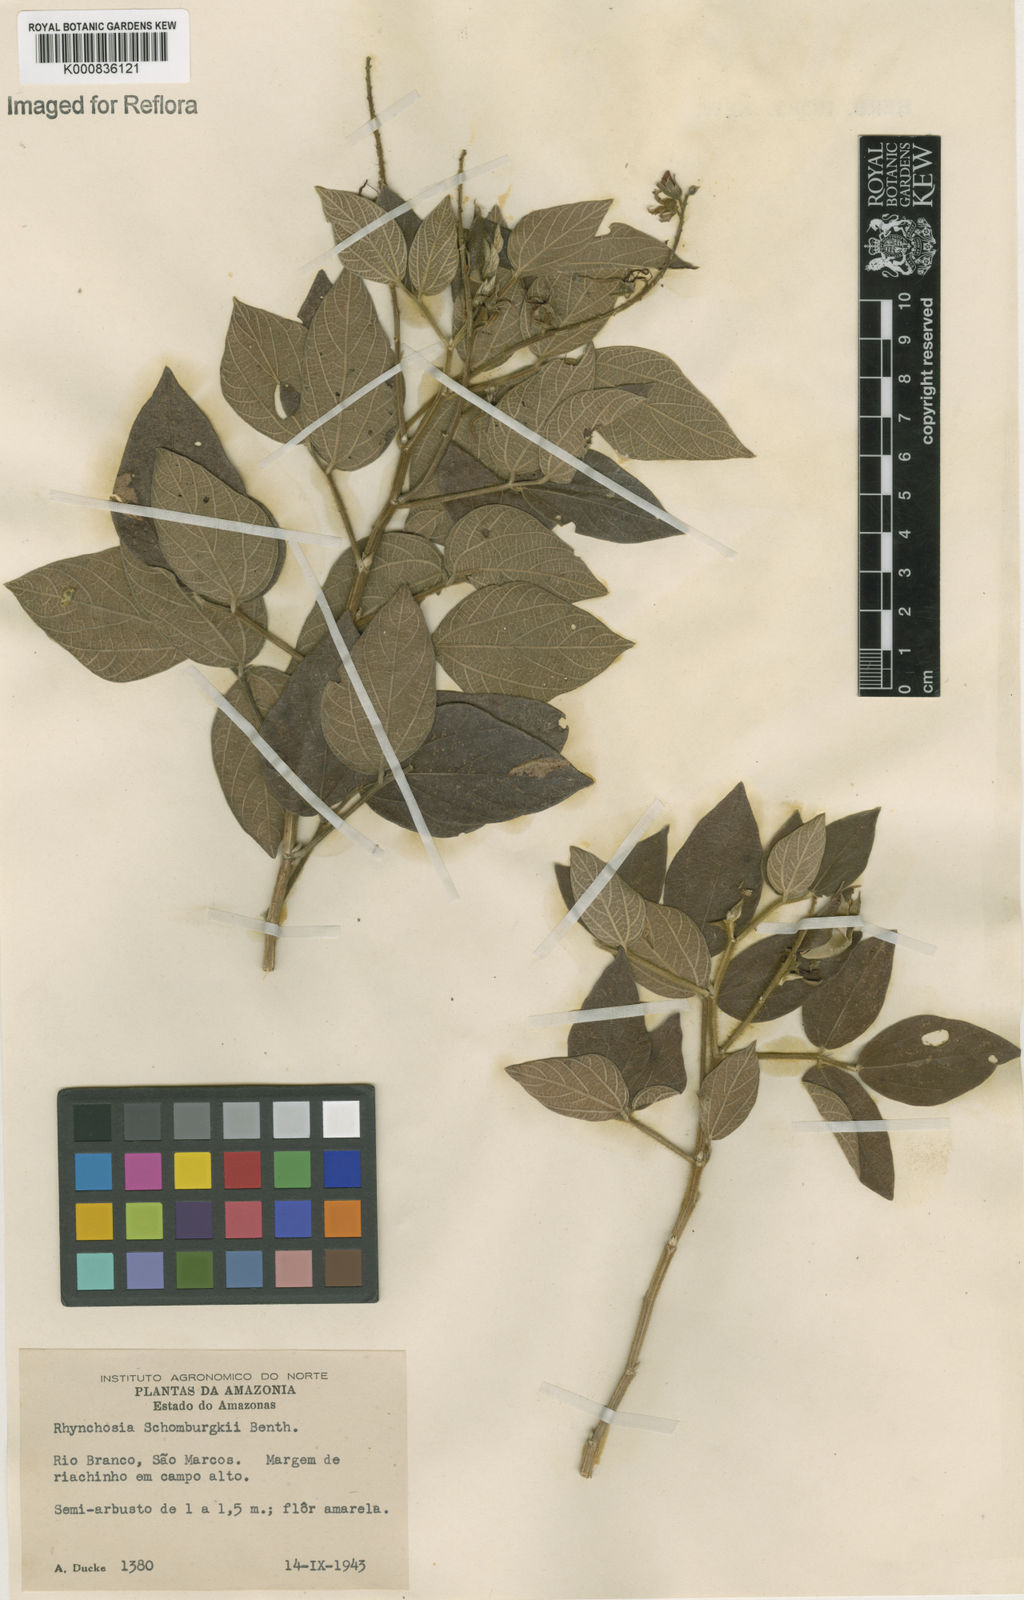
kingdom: Plantae
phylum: Tracheophyta
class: Magnoliopsida
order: Fabales
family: Fabaceae
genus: Rhynchosia
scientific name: Rhynchosia schomburgkii
